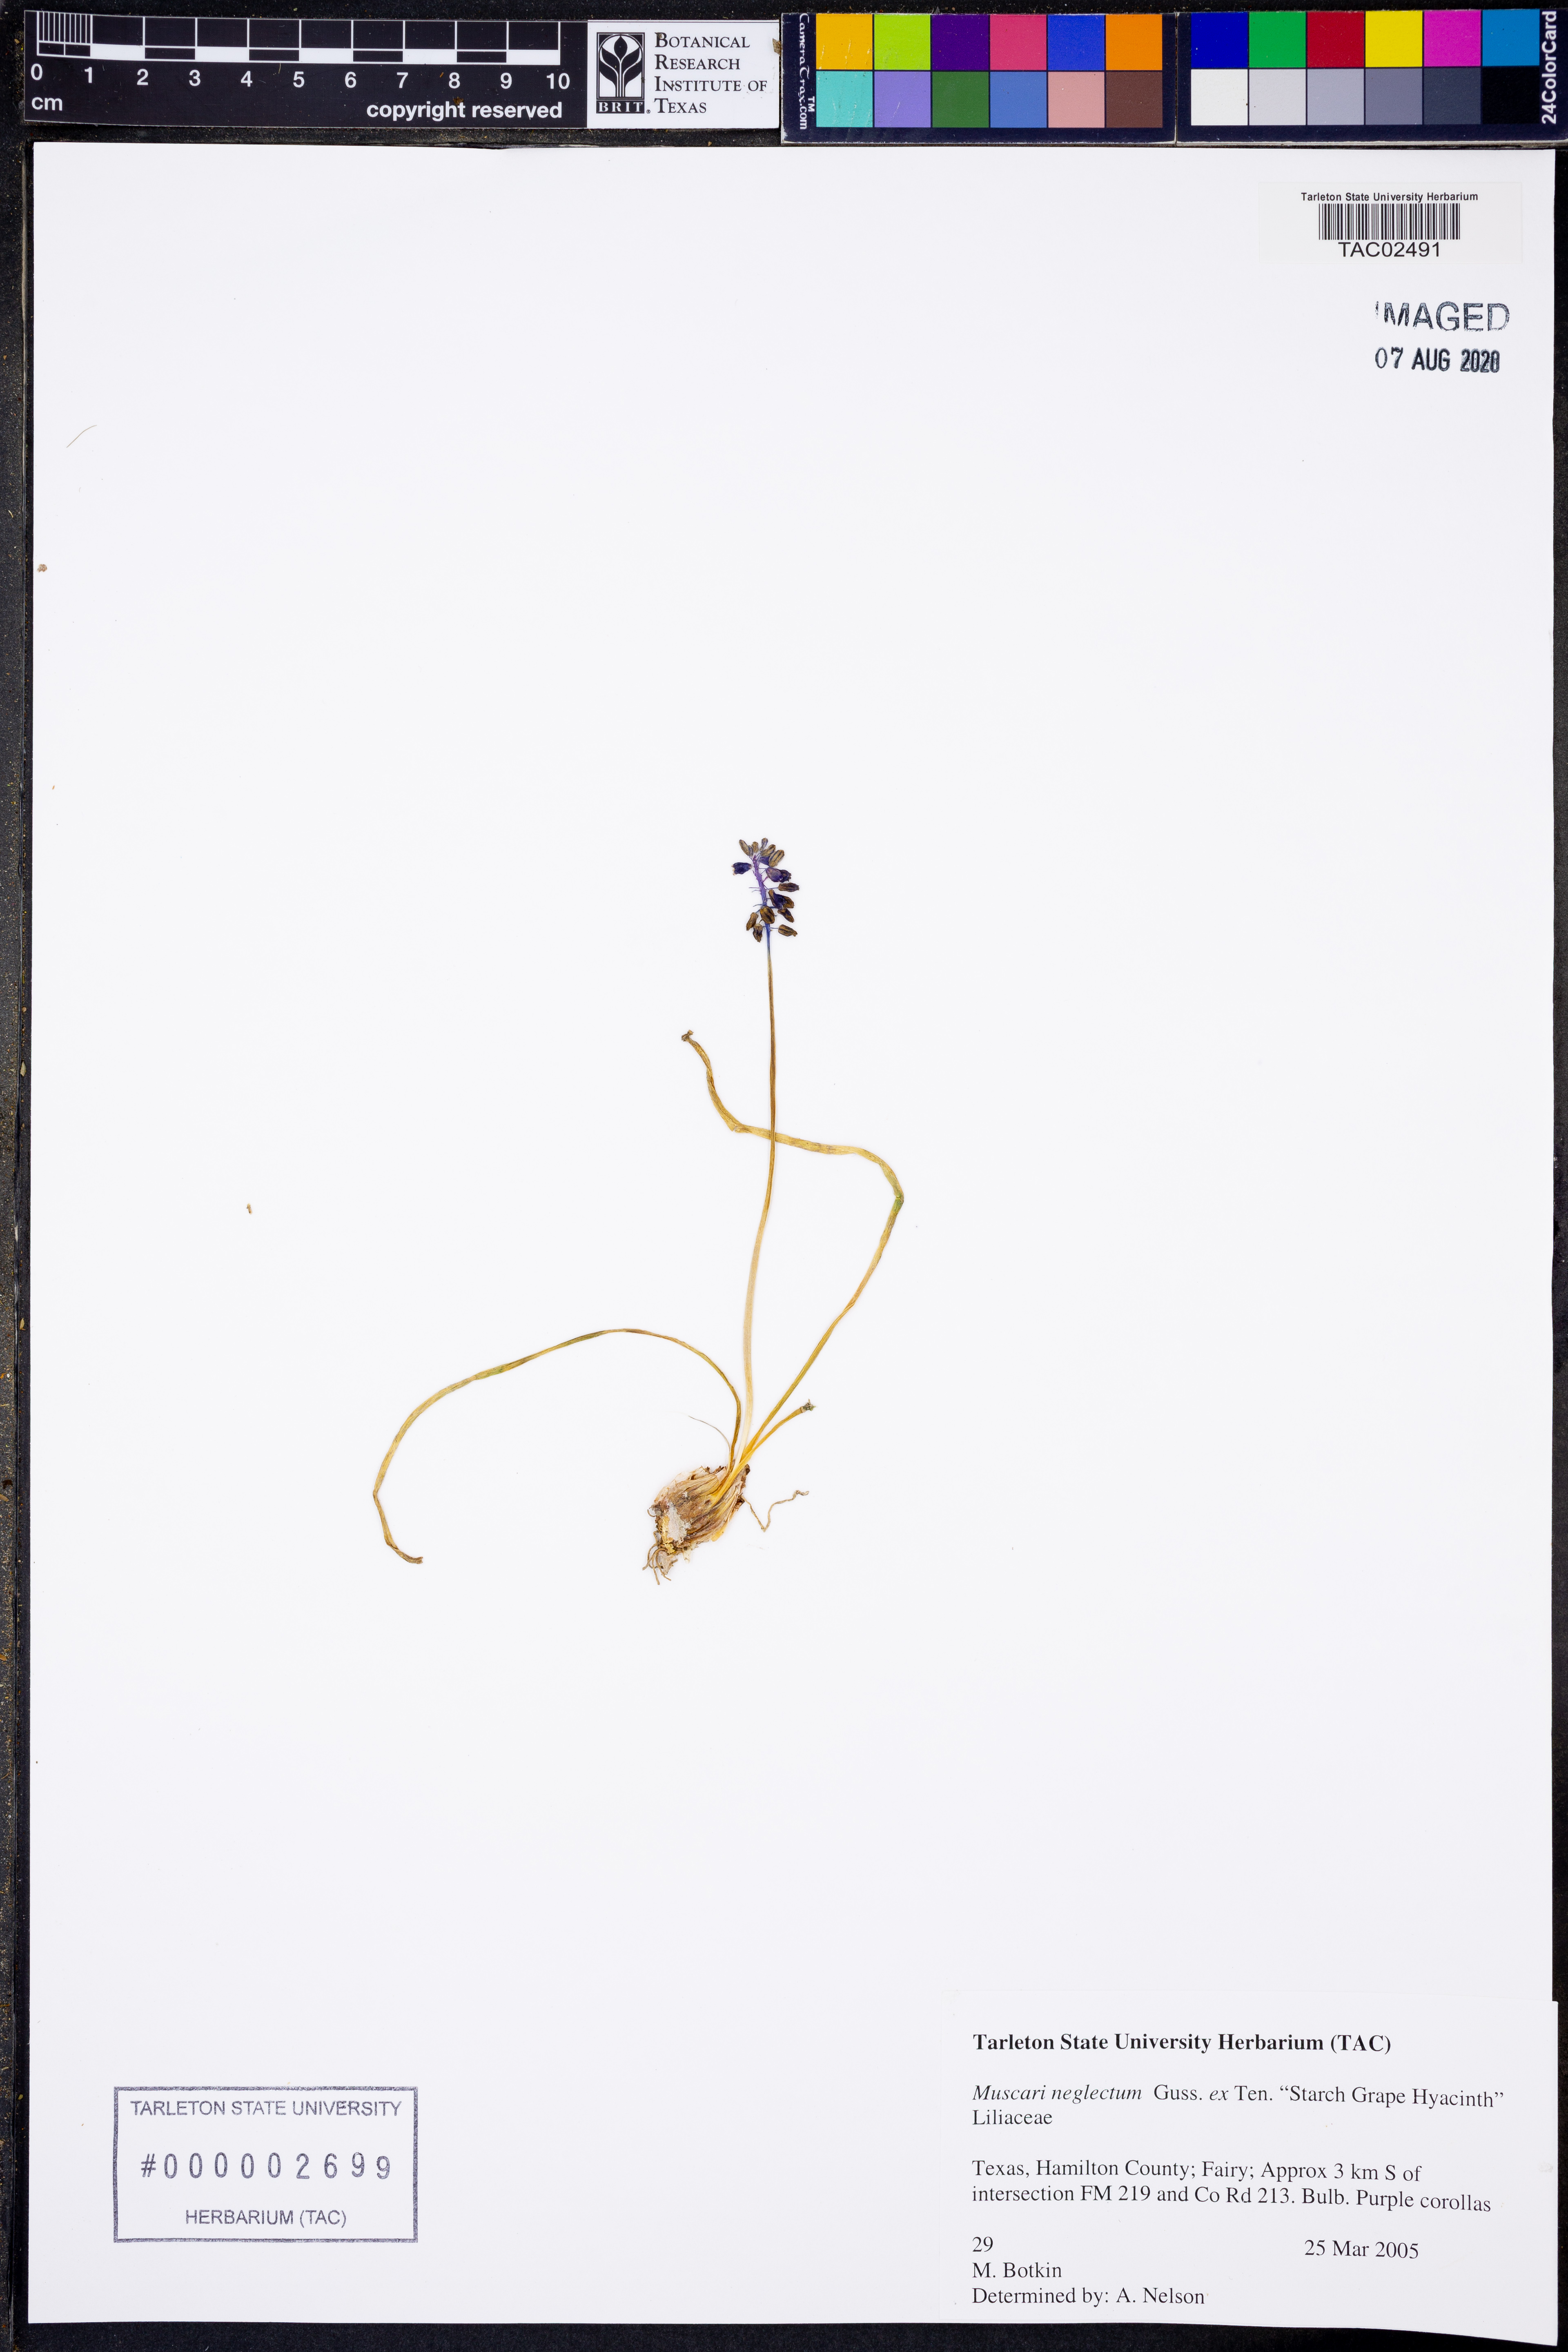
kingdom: Plantae
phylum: Tracheophyta
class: Liliopsida
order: Asparagales
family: Asparagaceae
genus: Muscari
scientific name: Muscari neglectum
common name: Grape-hyacinth
